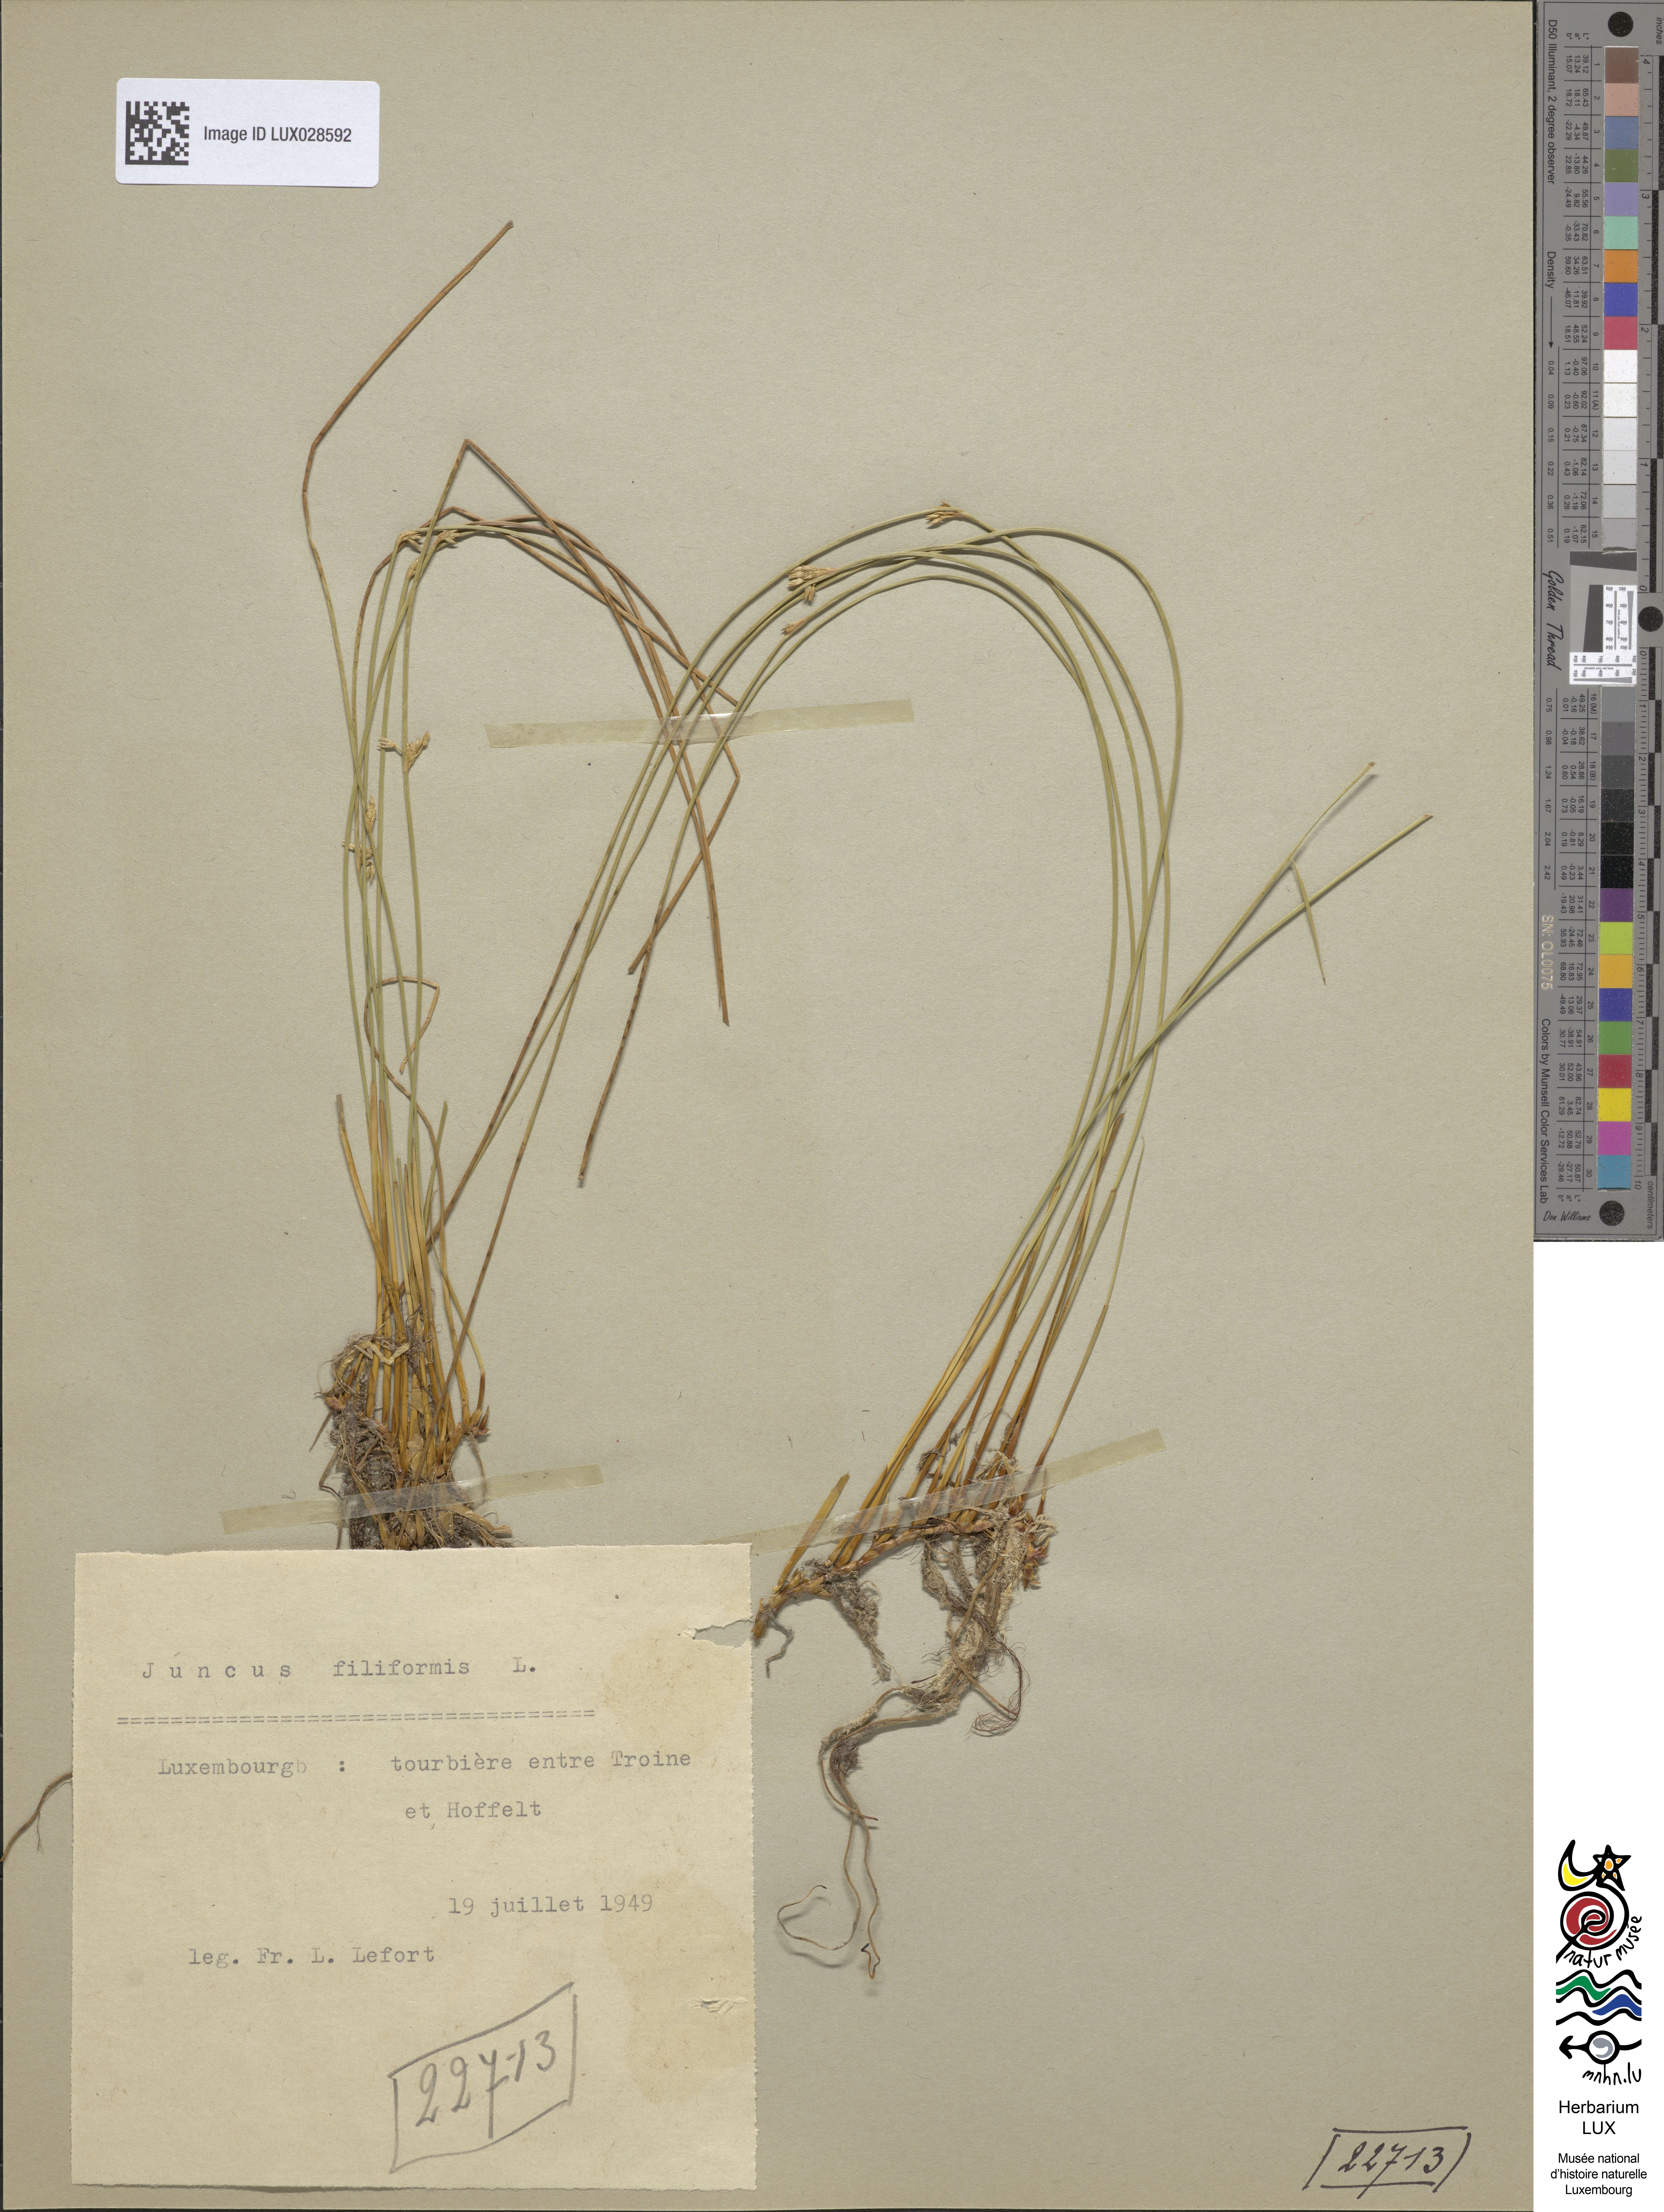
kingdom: Plantae
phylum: Tracheophyta
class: Liliopsida
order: Poales
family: Juncaceae
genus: Juncus
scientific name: Juncus filiformis
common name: Thread rush
